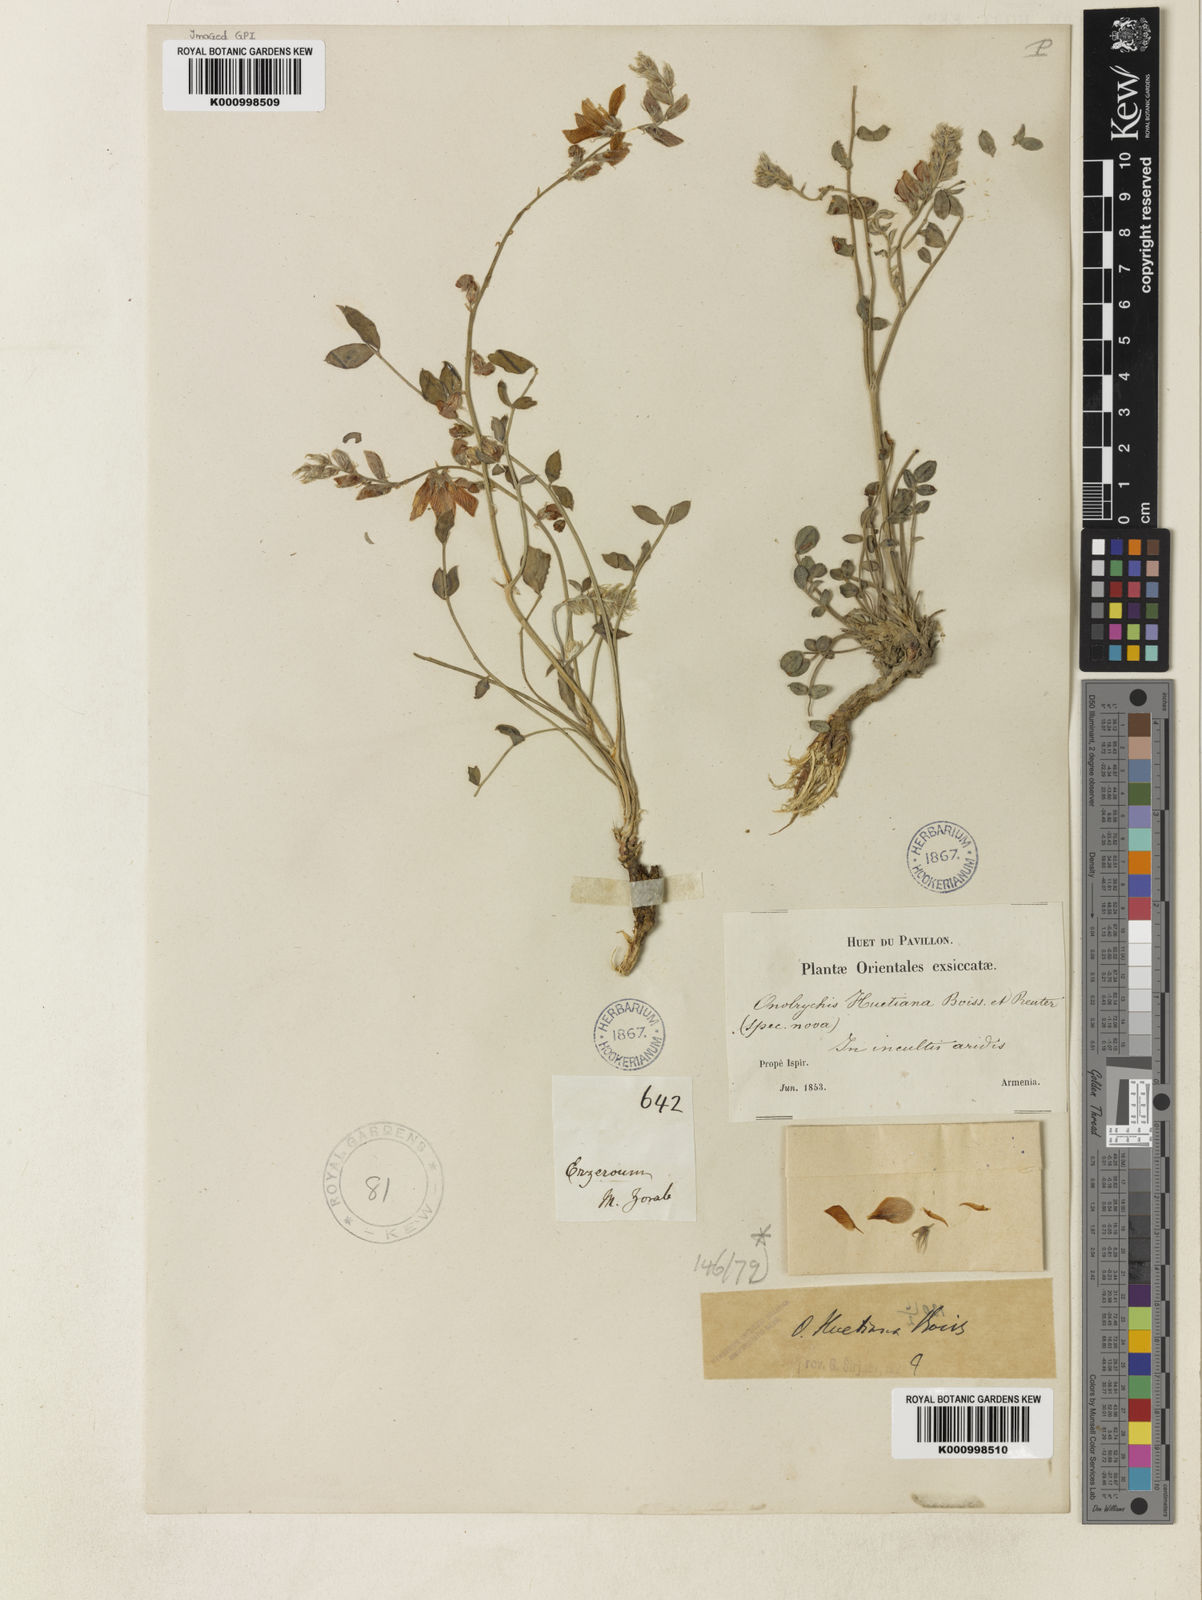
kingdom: Plantae
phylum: Tracheophyta
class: Magnoliopsida
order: Fabales
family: Fabaceae
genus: Onobrychis
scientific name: Onobrychis huetiana
